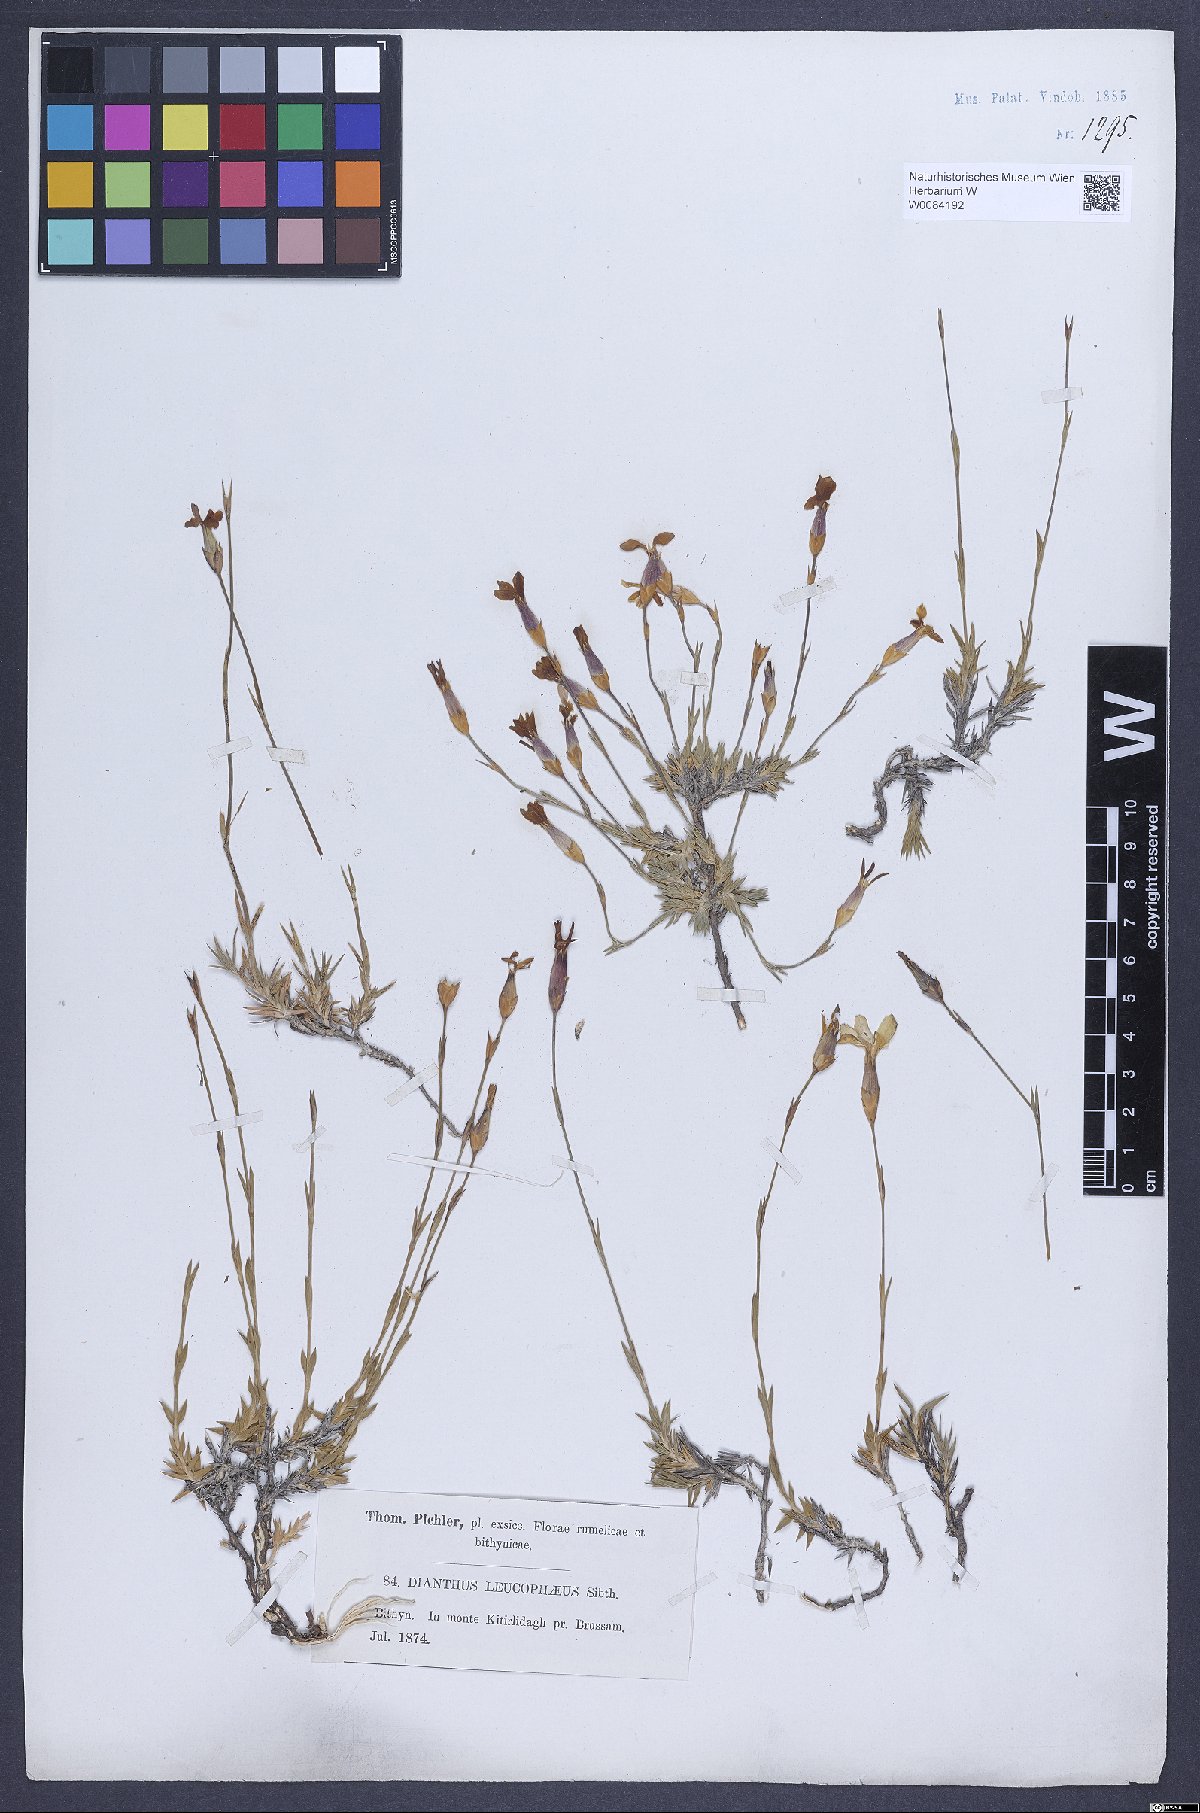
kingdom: Plantae
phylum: Tracheophyta
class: Magnoliopsida
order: Caryophyllales
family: Caryophyllaceae
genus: Dianthus
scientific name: Dianthus leucophaeus
